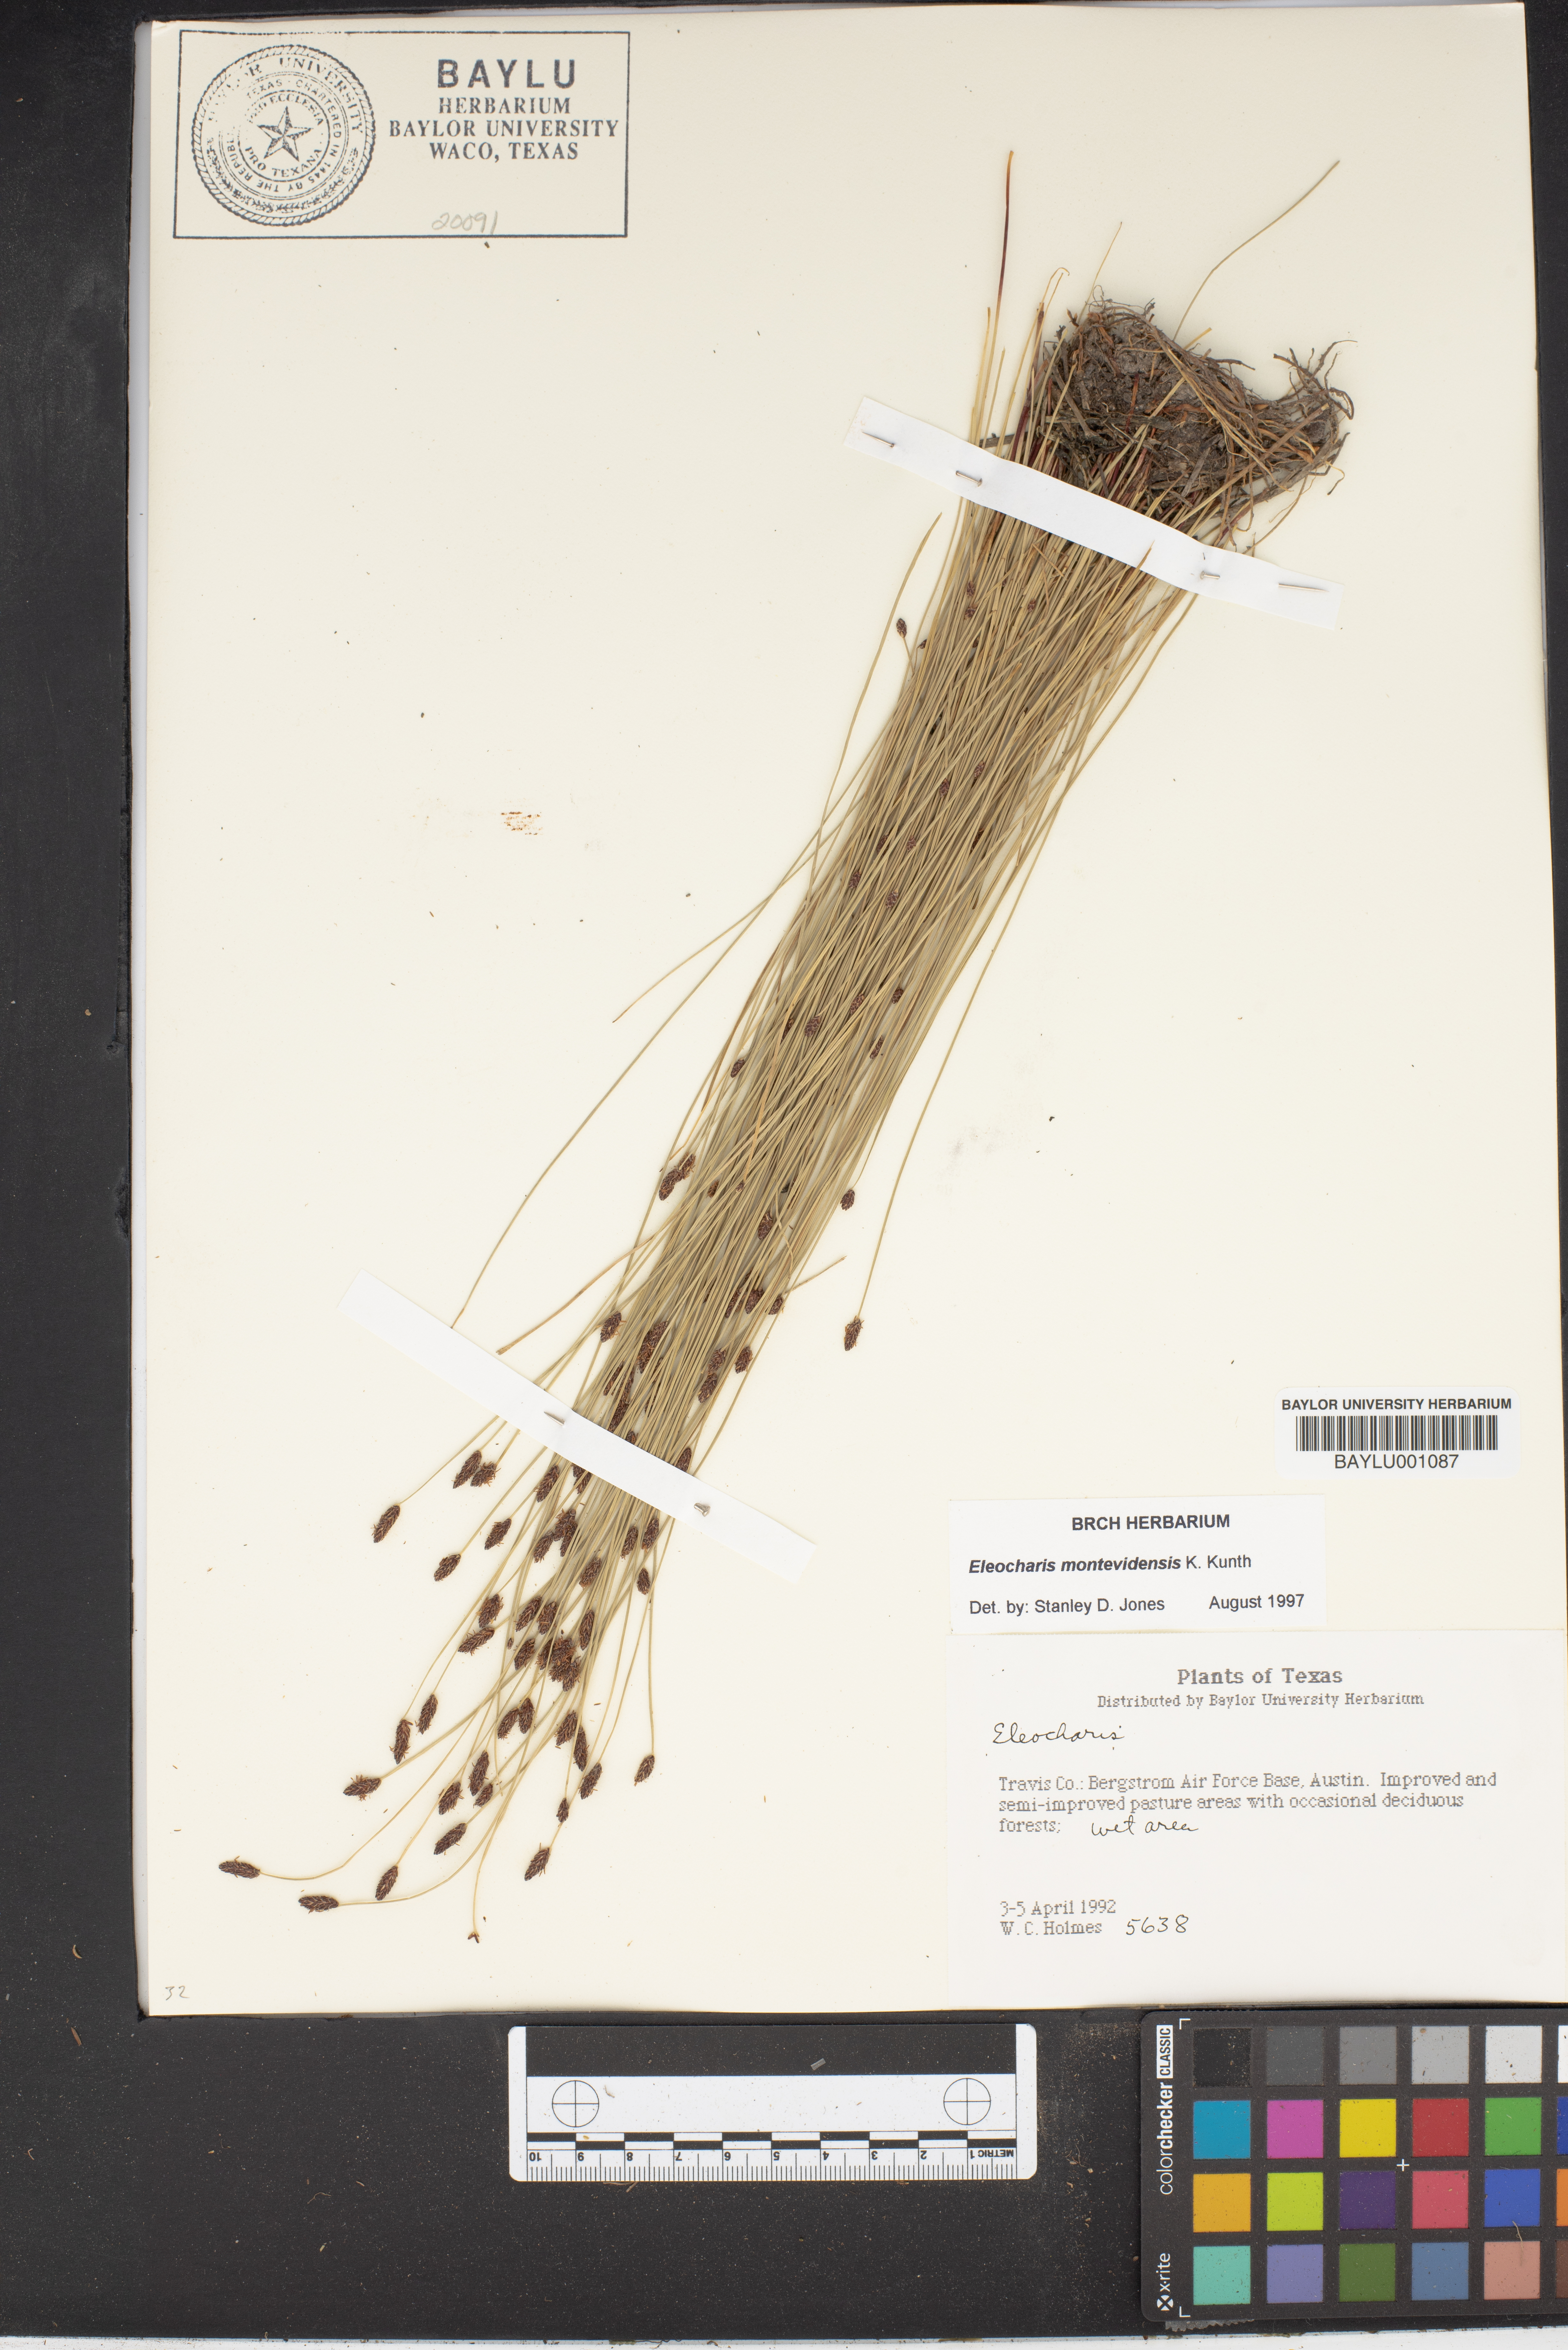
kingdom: Plantae
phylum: Tracheophyta
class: Liliopsida
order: Poales
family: Cyperaceae
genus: Eleocharis
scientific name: Eleocharis
